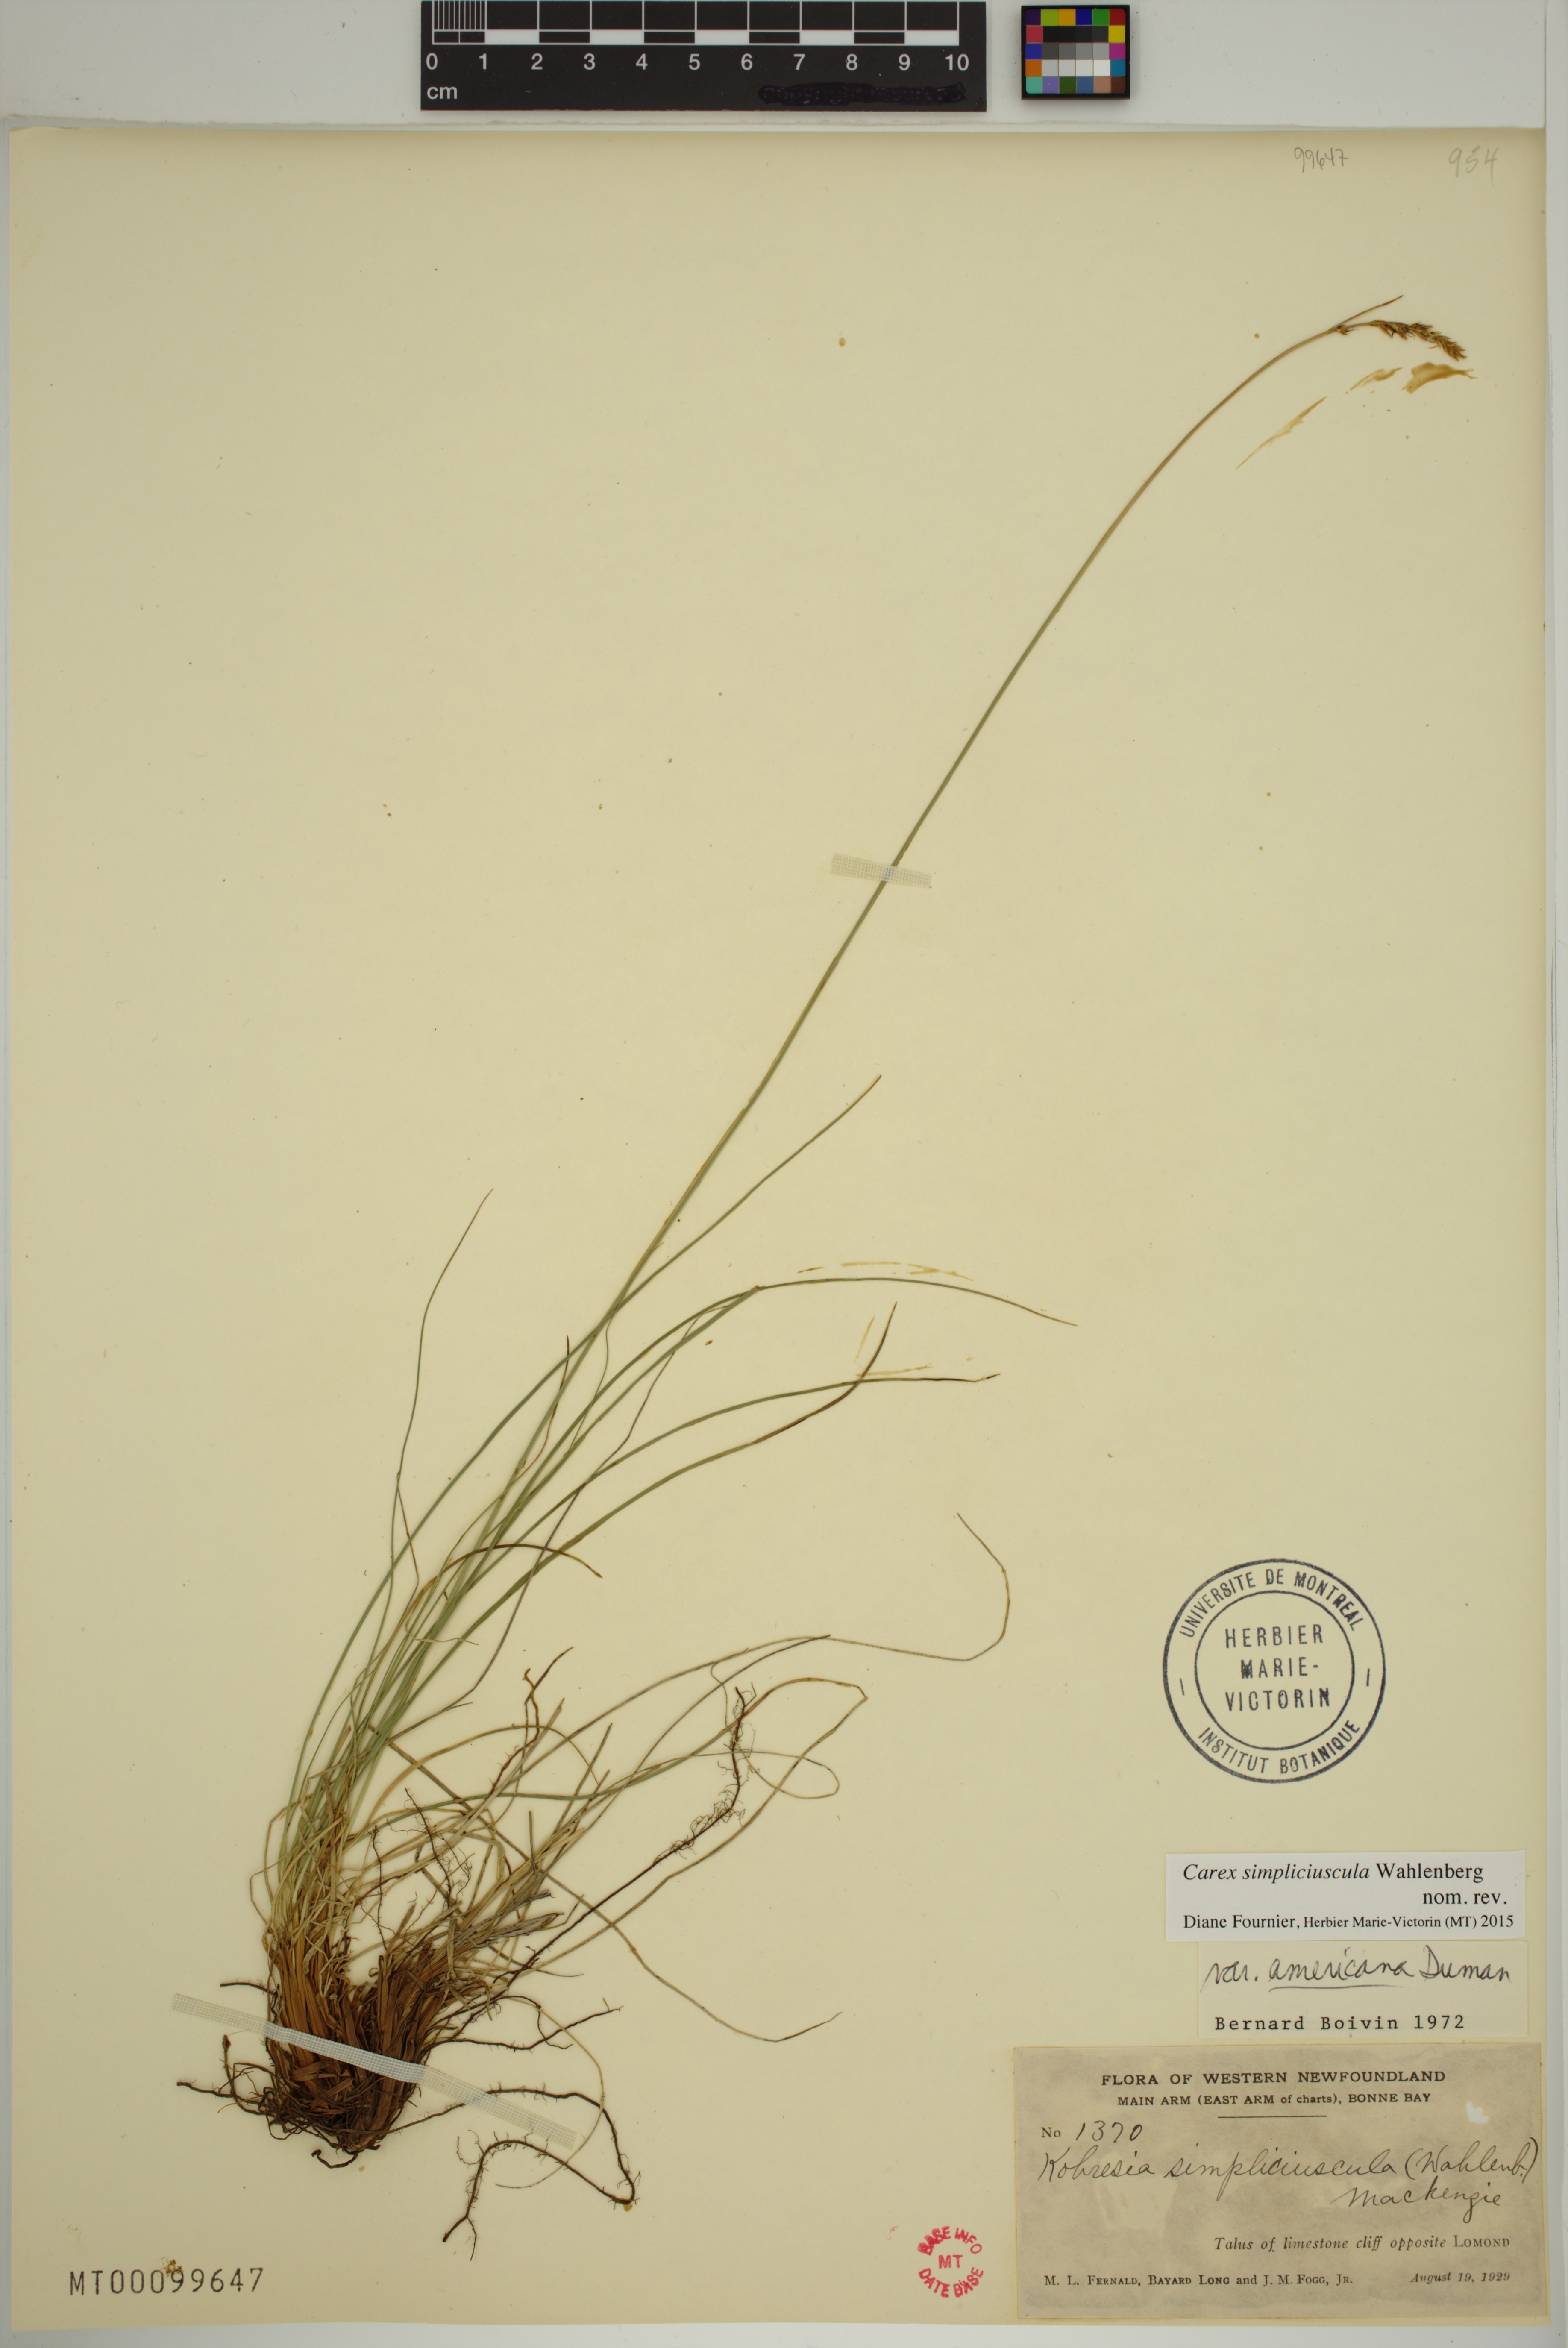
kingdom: Plantae
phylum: Tracheophyta
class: Liliopsida
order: Poales
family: Cyperaceae
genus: Carex
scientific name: Carex simpliciuscula
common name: Simple bog sedge
